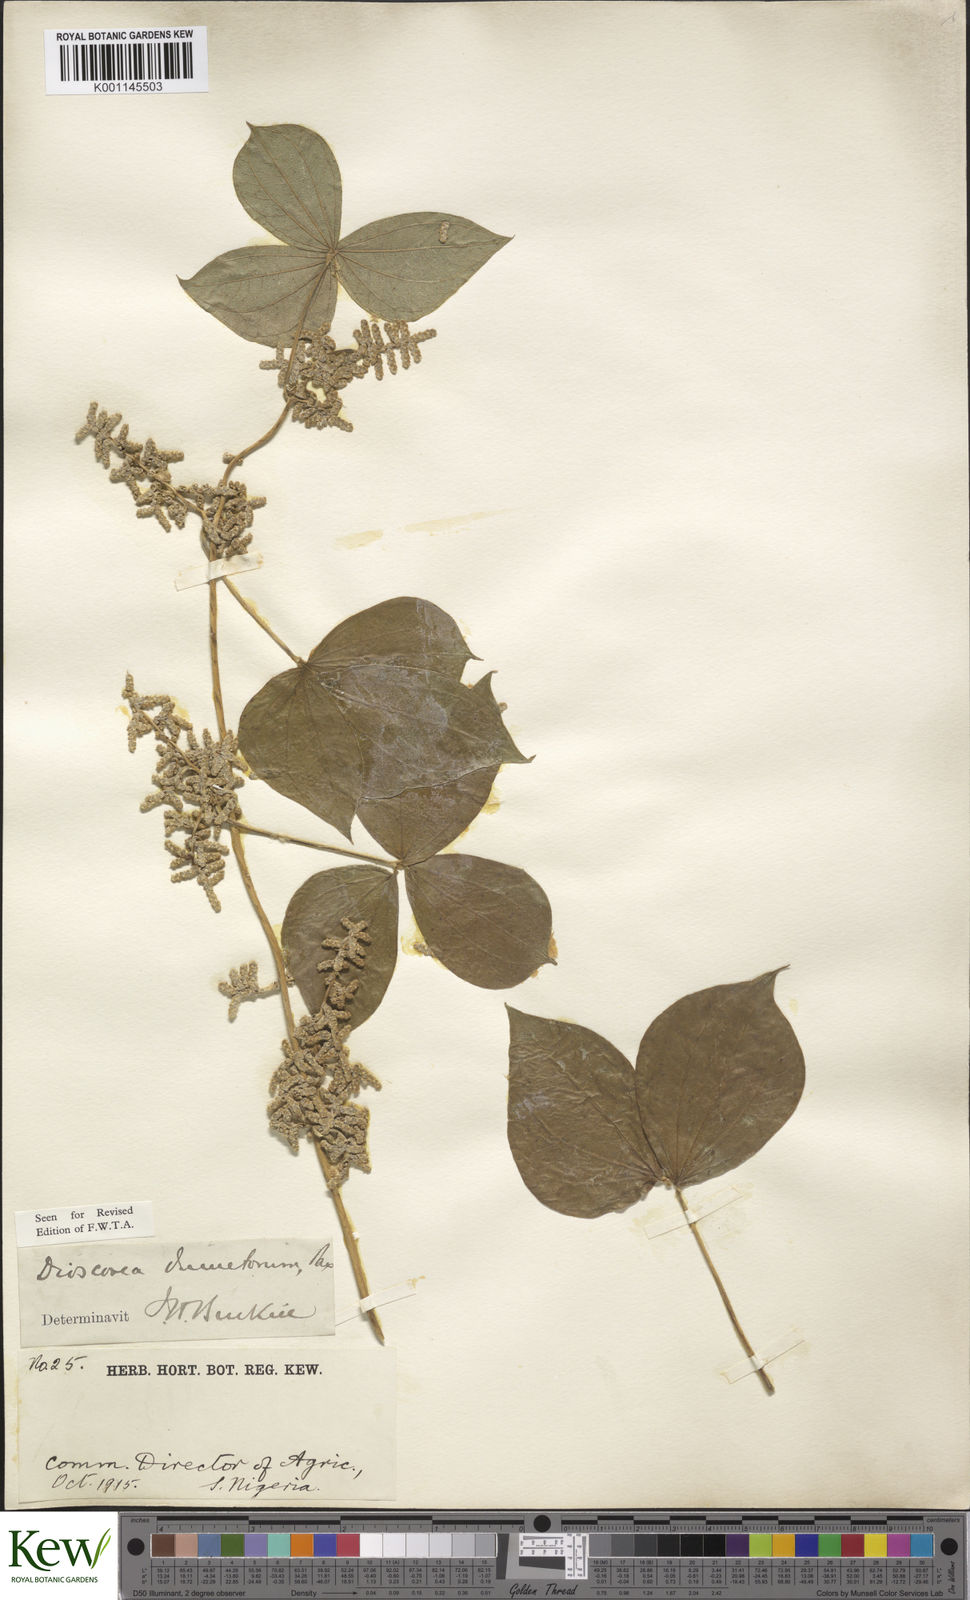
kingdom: Plantae
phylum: Tracheophyta
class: Liliopsida
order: Dioscoreales
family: Dioscoreaceae
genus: Dioscorea
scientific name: Dioscorea dumetorum
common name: African bitter yam
